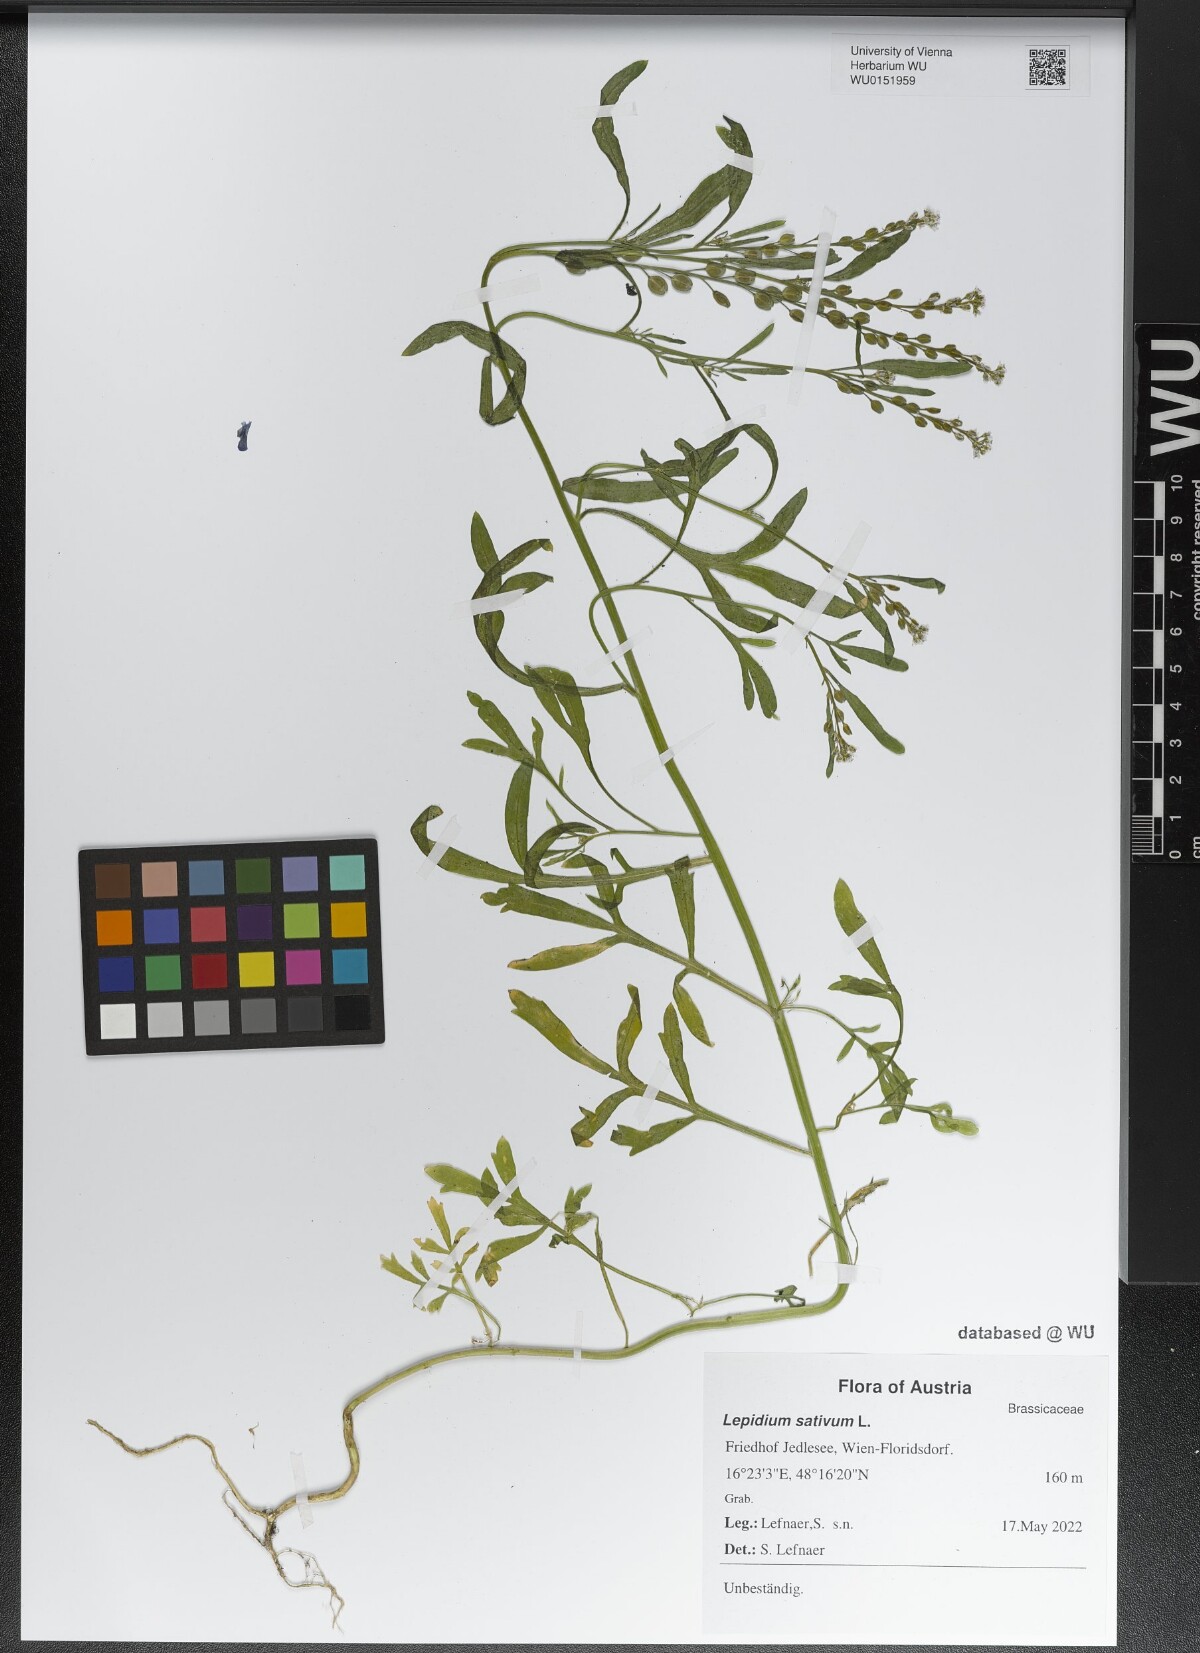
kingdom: Plantae
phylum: Tracheophyta
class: Magnoliopsida
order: Brassicales
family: Brassicaceae
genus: Lepidium
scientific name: Lepidium sativum
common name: Garden cress
